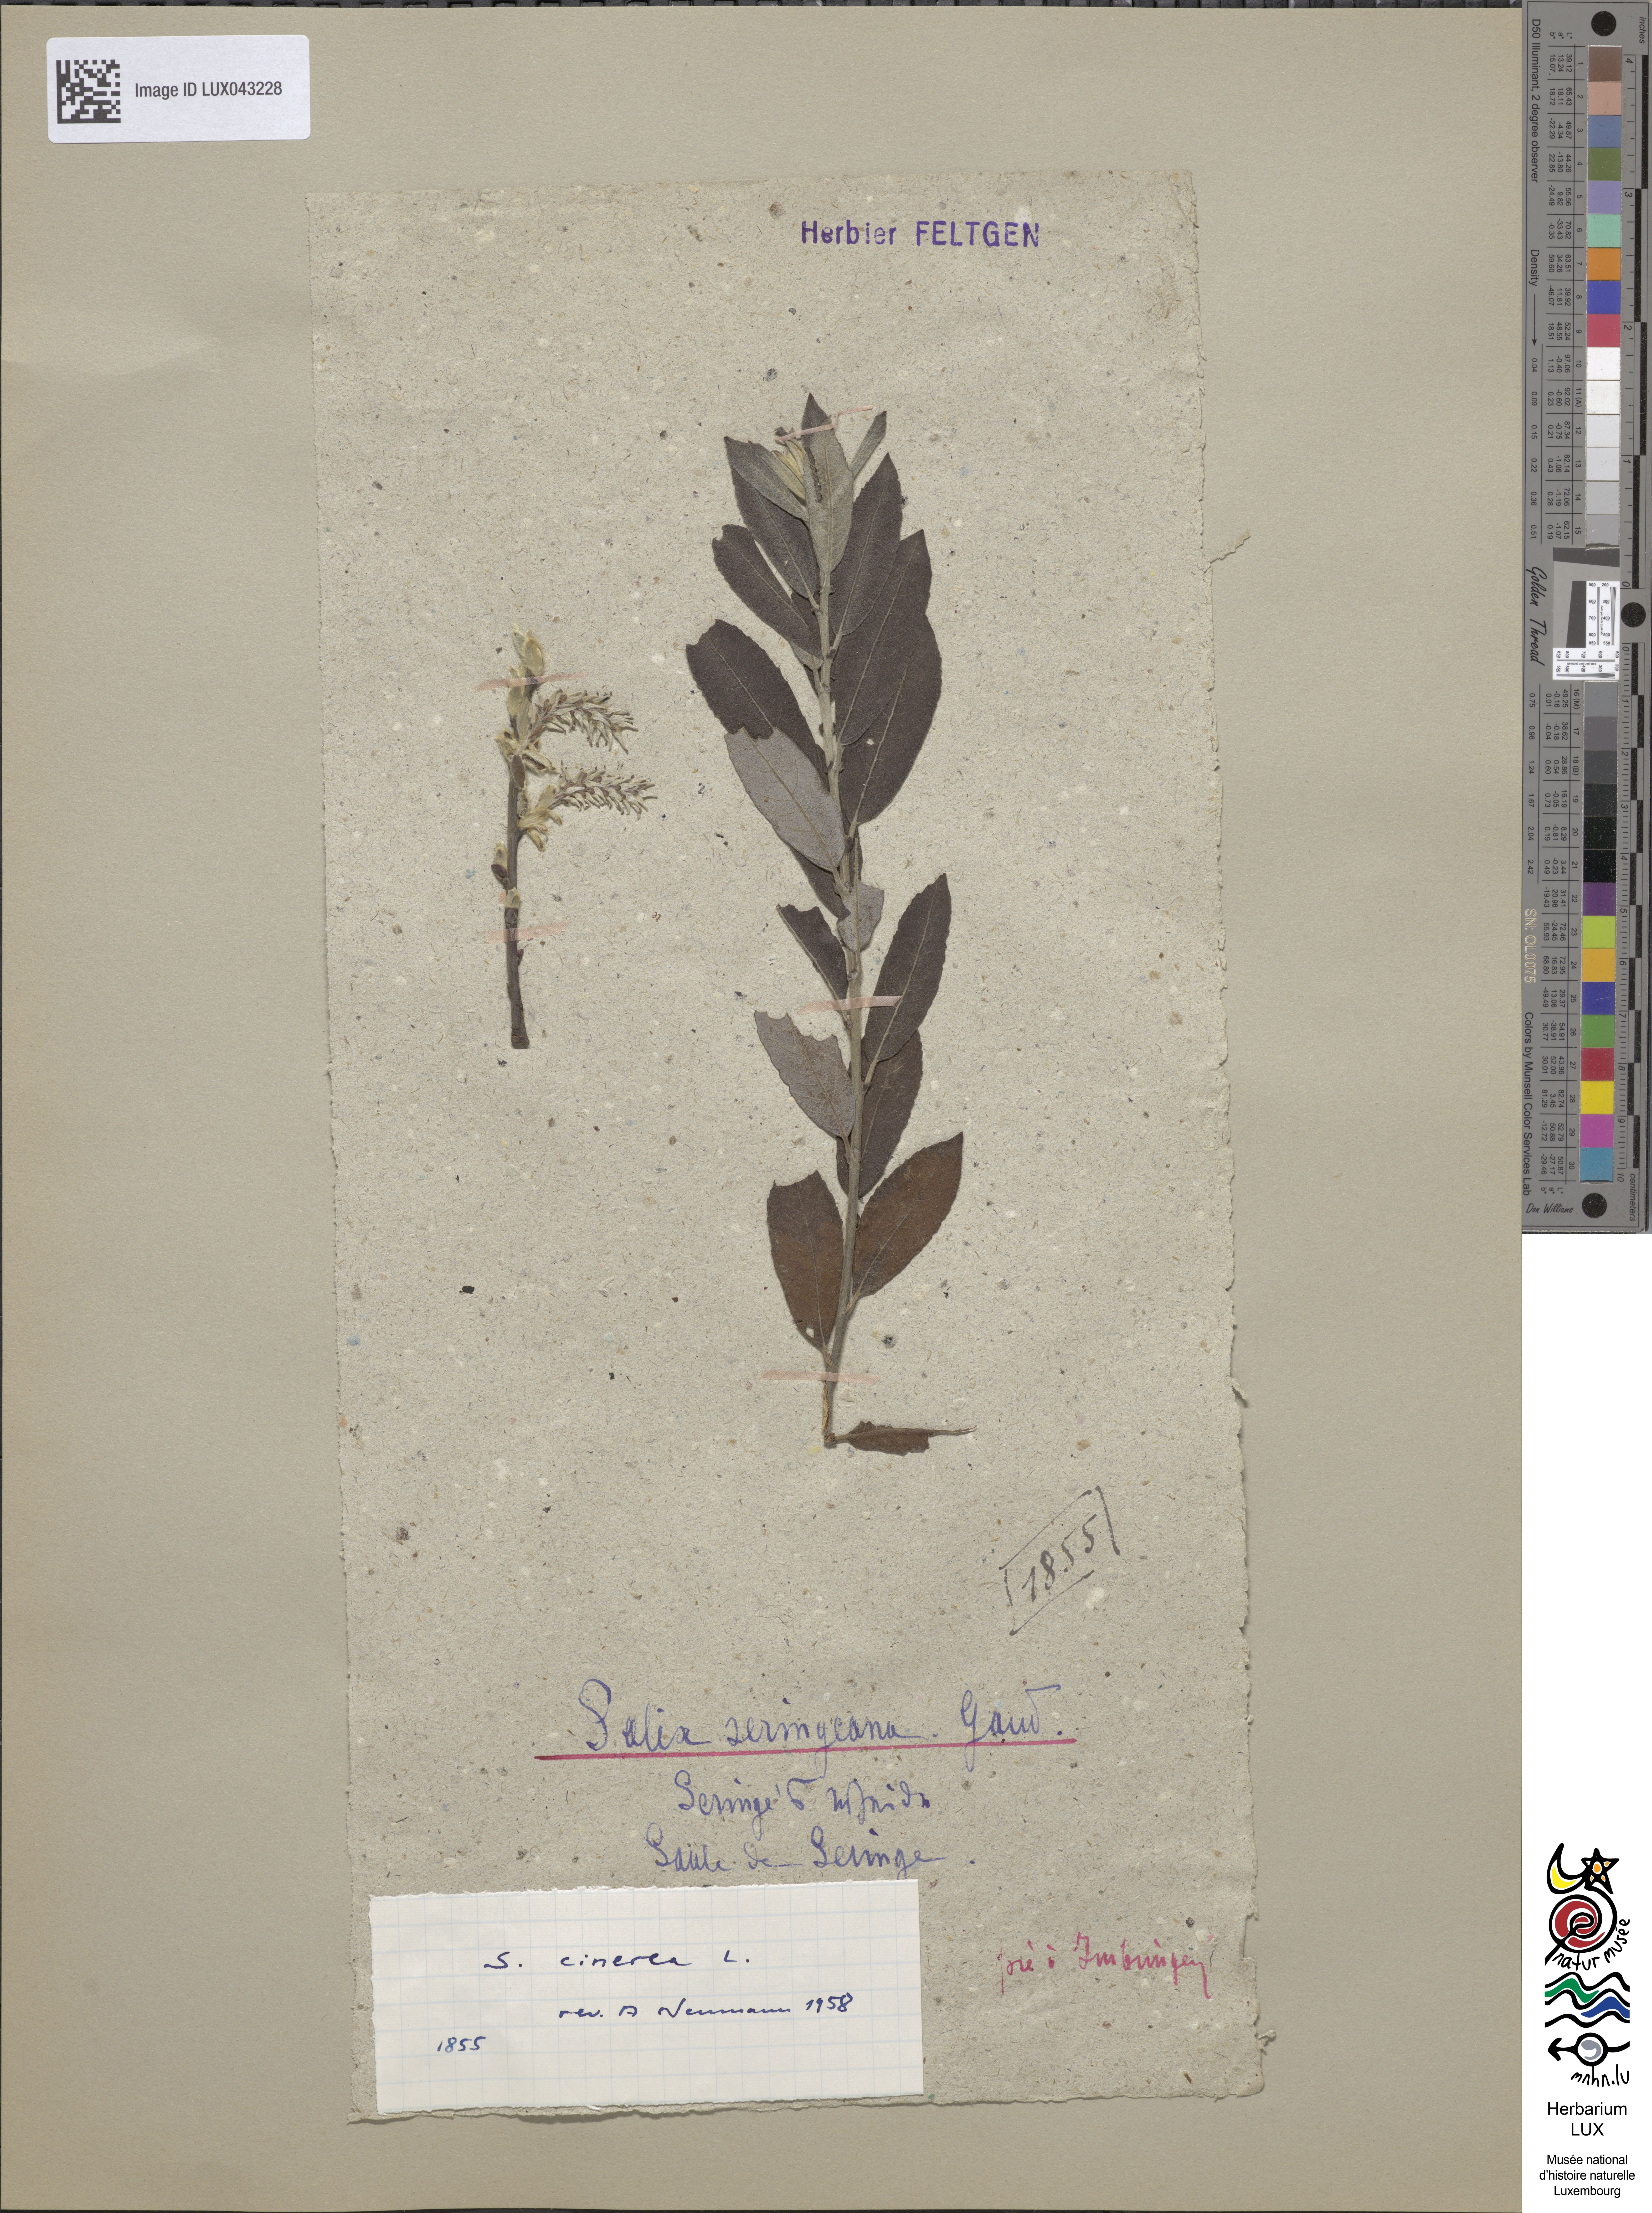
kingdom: Plantae
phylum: Tracheophyta
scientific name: Tracheophyta
